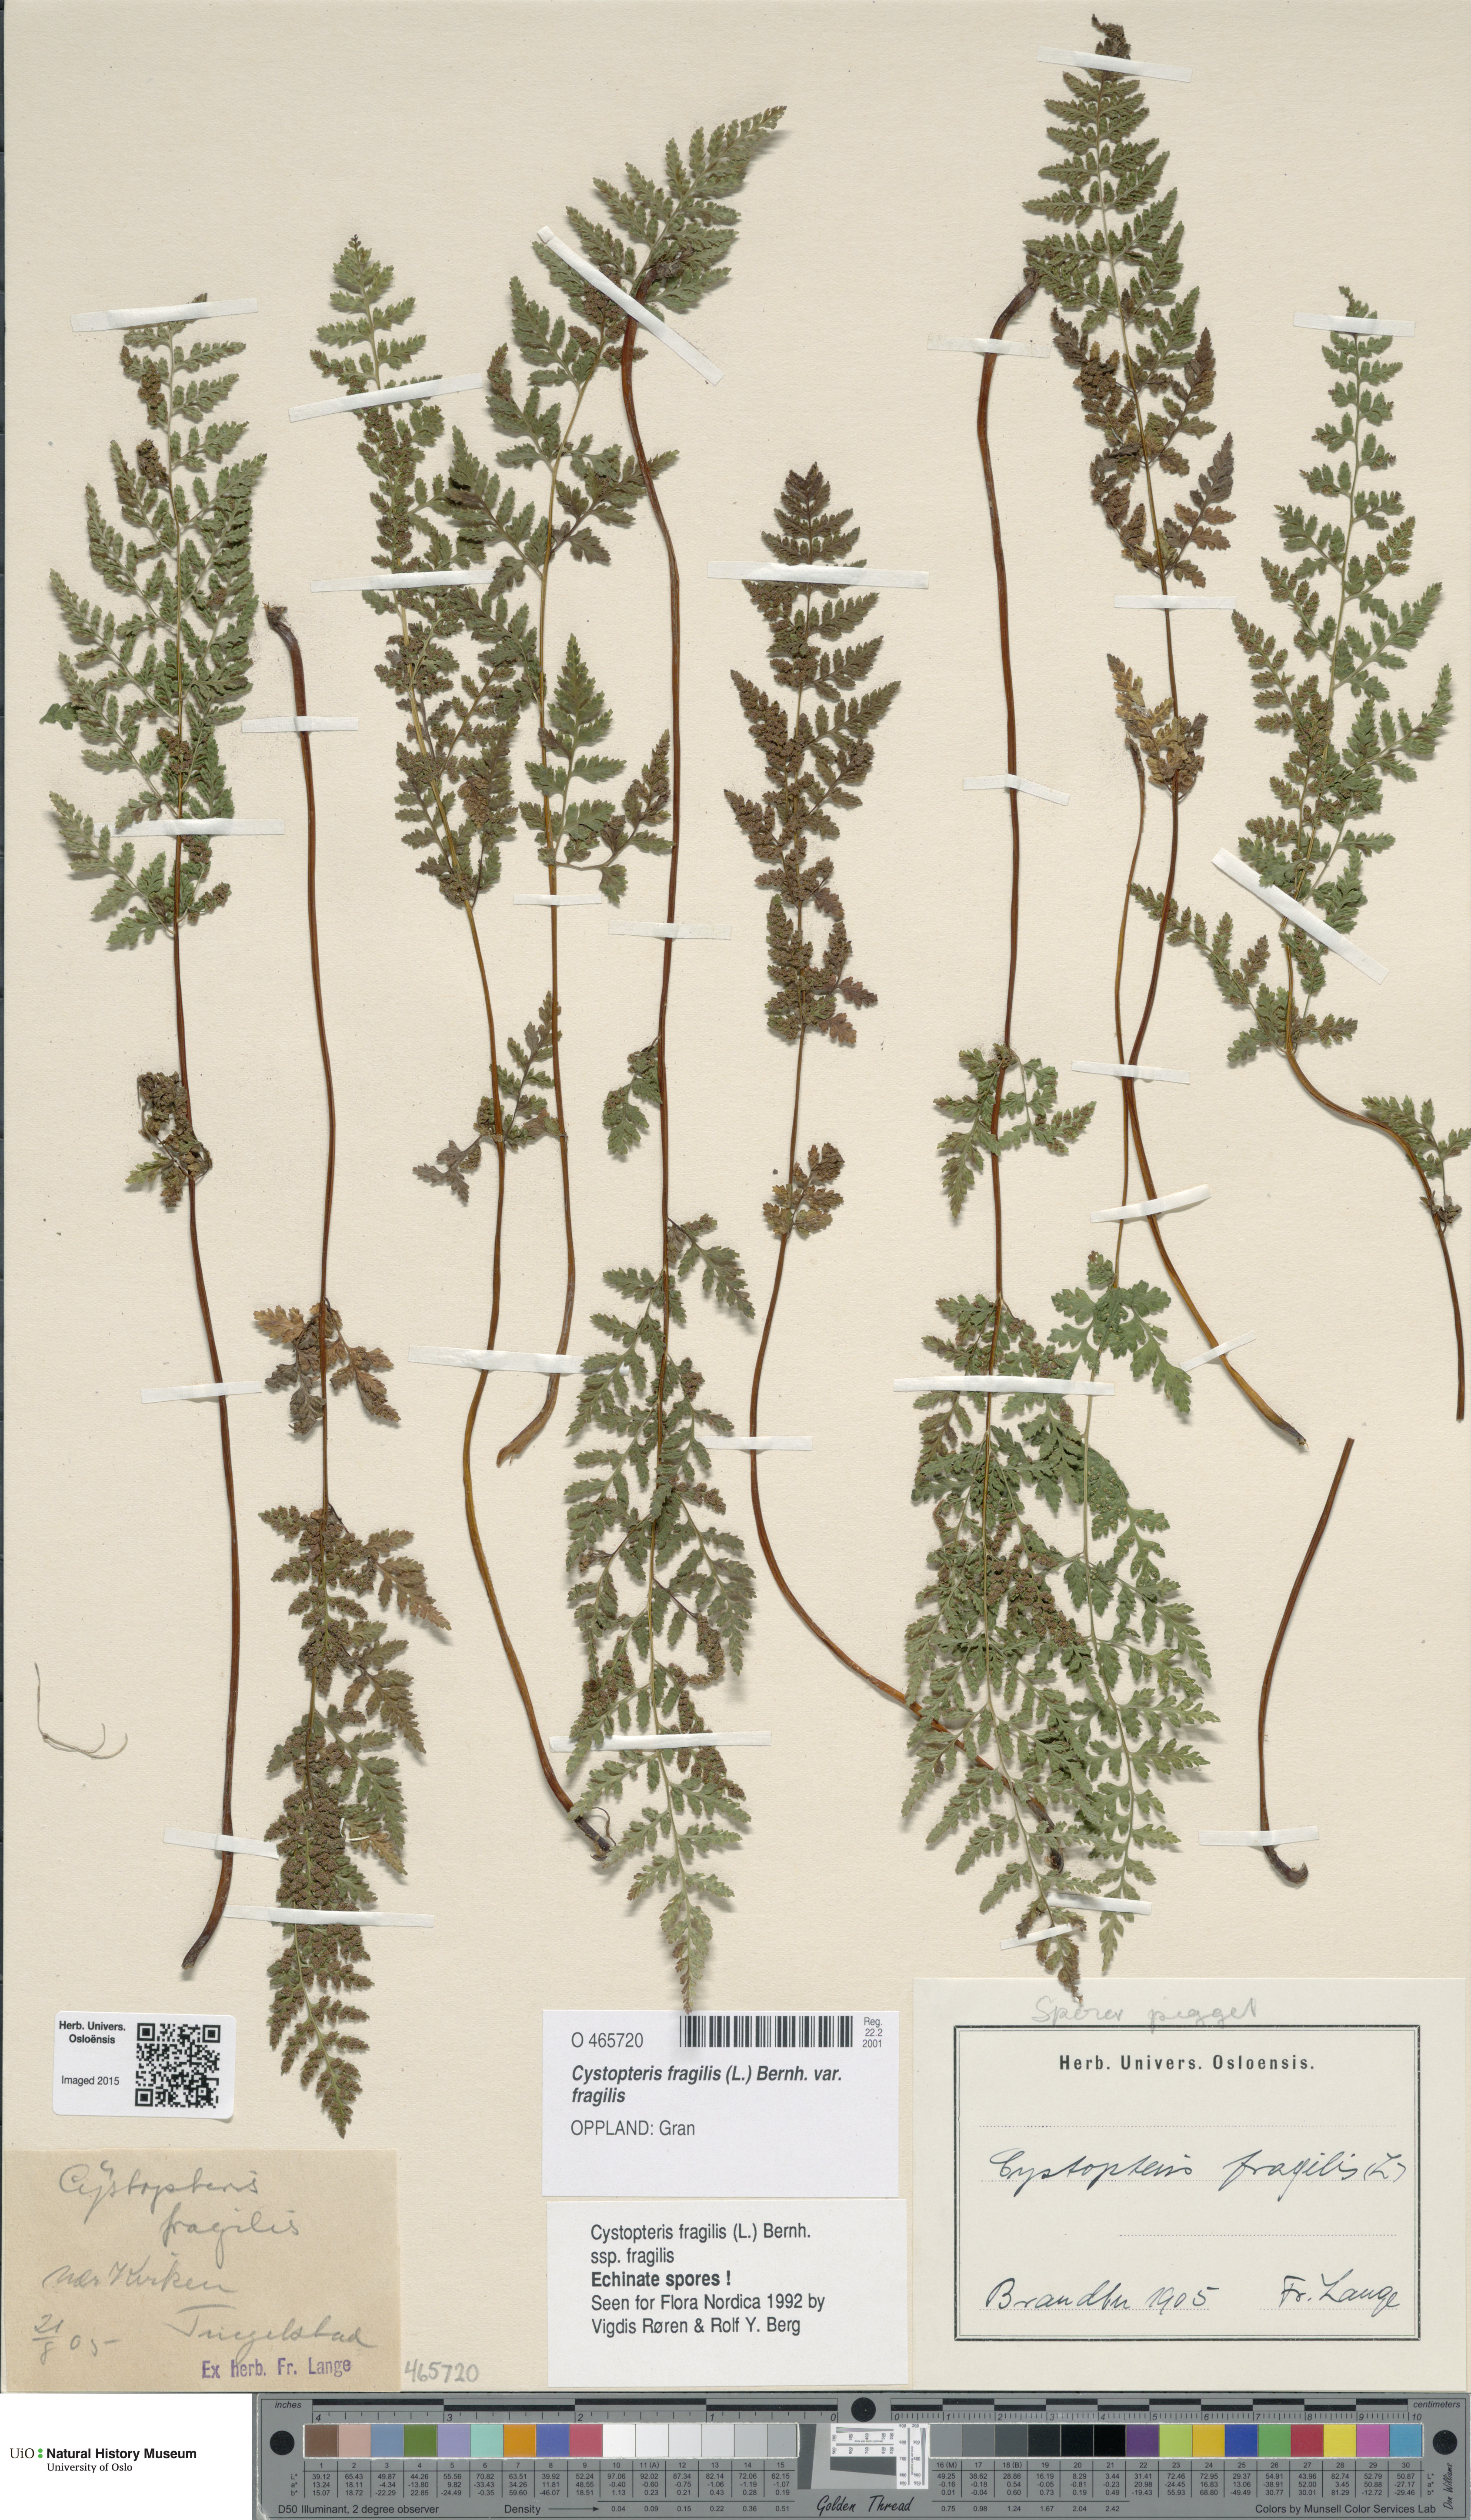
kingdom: Plantae
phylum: Tracheophyta
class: Polypodiopsida
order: Polypodiales
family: Cystopteridaceae
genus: Cystopteris
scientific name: Cystopteris fragilis
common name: Brittle bladder fern
